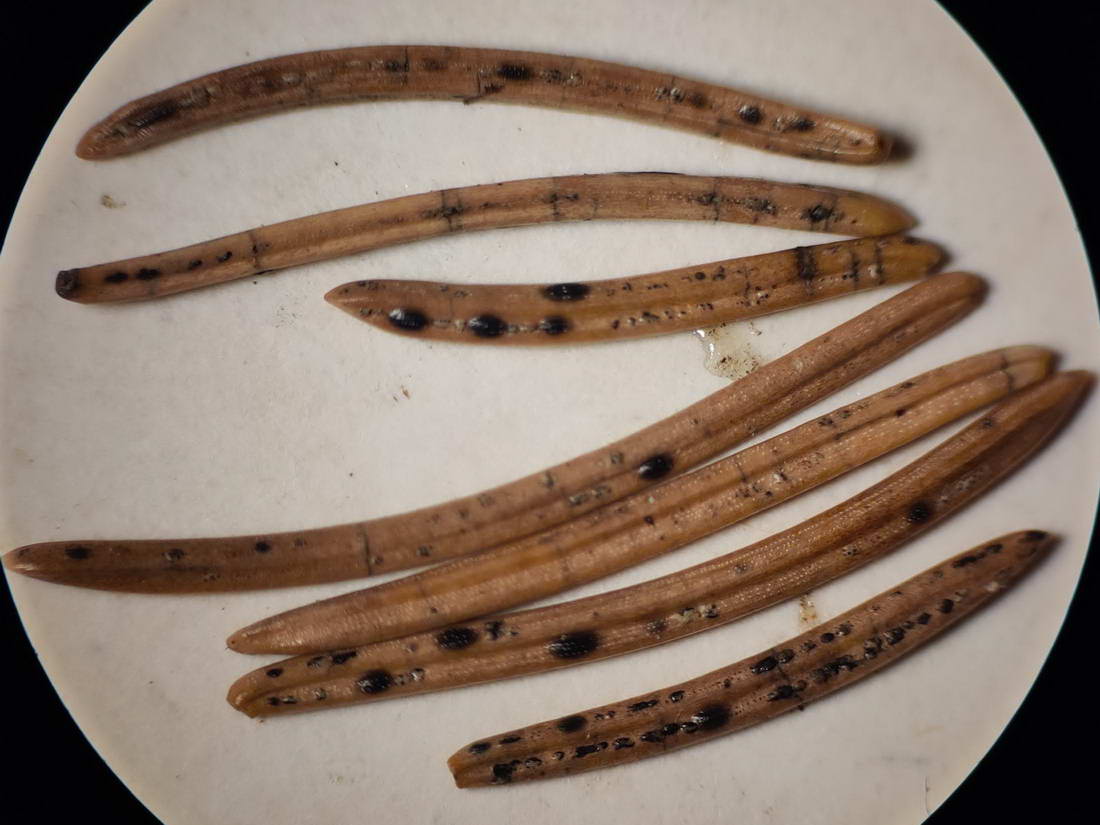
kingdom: Fungi
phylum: Ascomycota
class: Leotiomycetes
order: Rhytismatales
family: Rhytismataceae
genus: Lophodermium
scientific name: Lophodermium piceae
